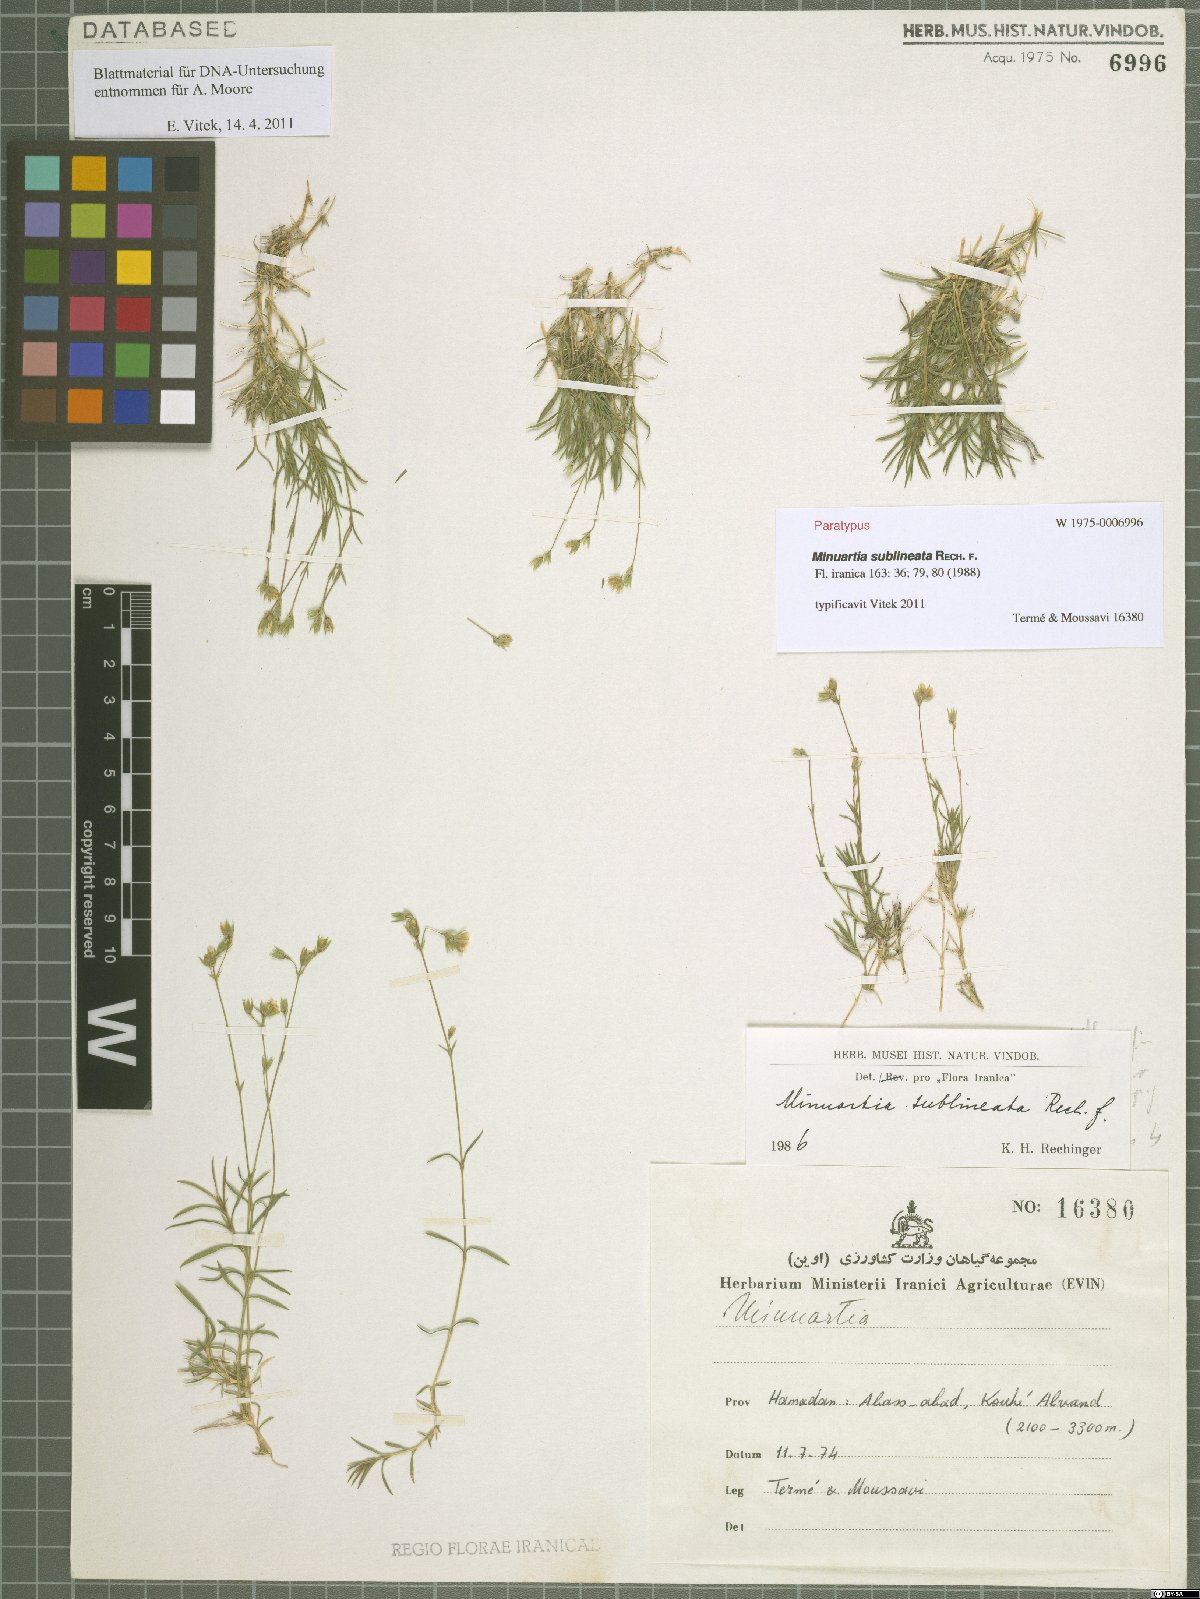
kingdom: Plantae
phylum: Tracheophyta
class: Magnoliopsida
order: Caryophyllales
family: Caryophyllaceae
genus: Sabulina
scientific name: Sabulina sublineata
